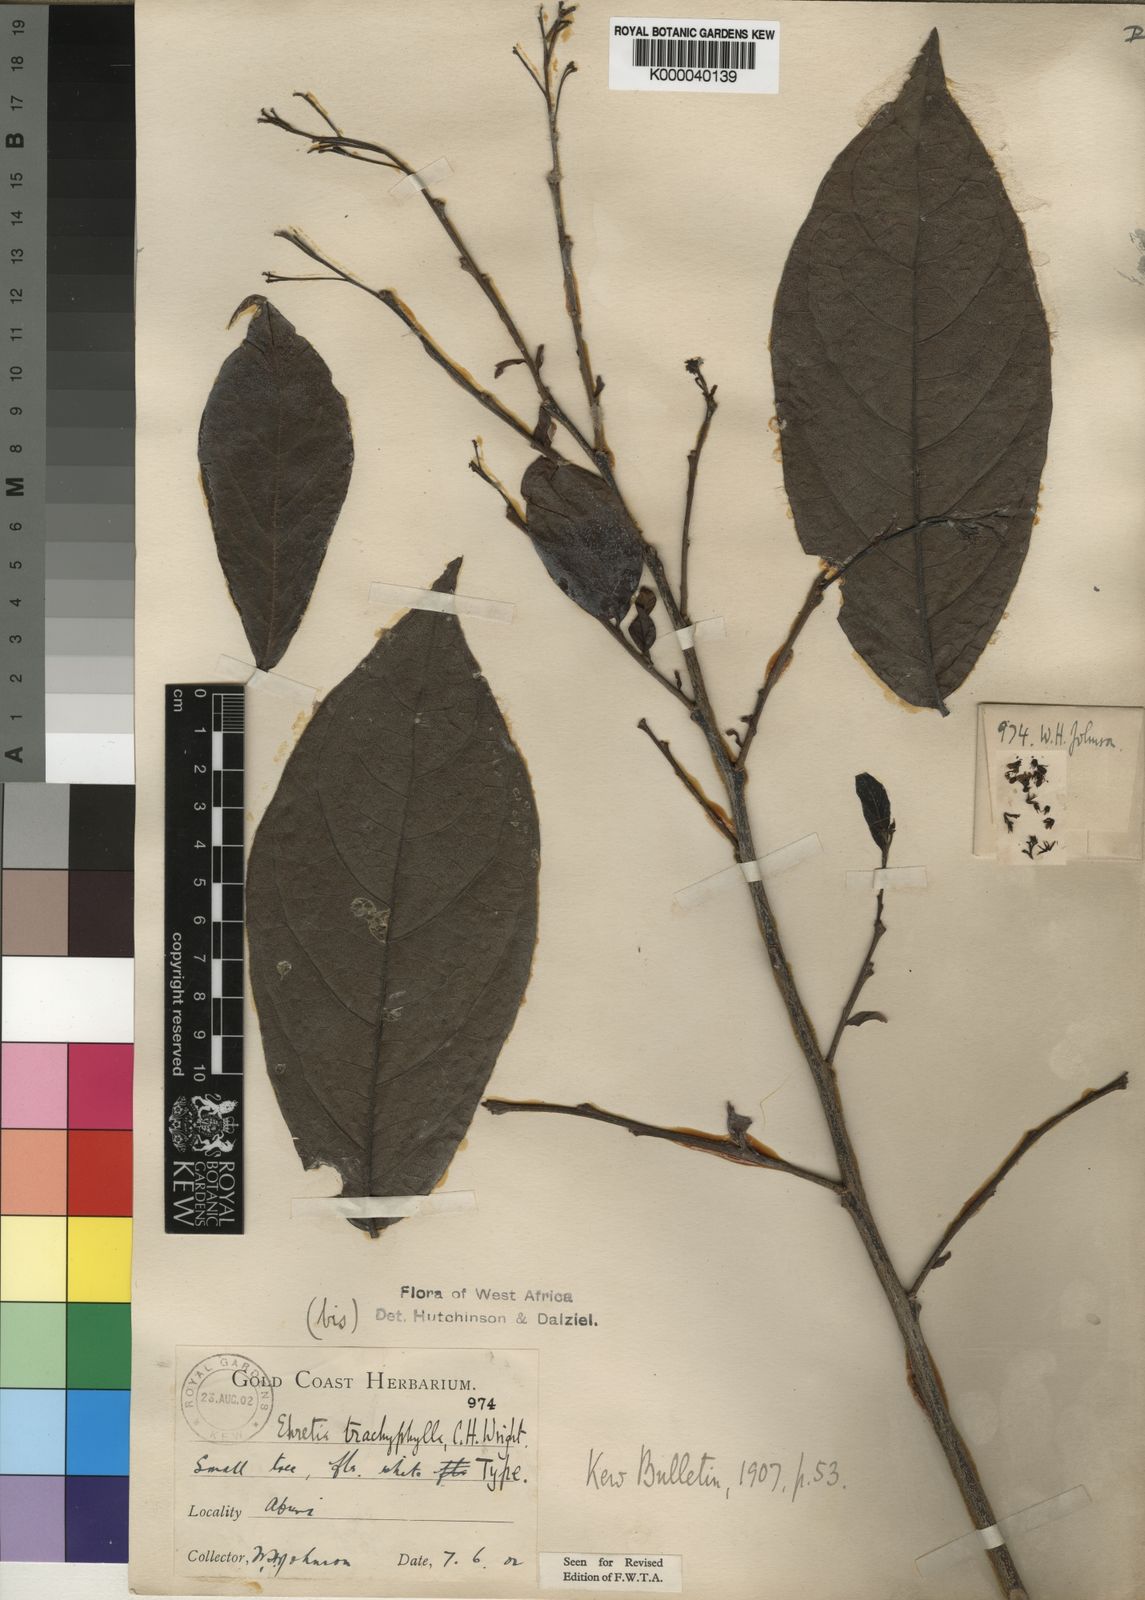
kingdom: Plantae
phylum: Tracheophyta
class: Magnoliopsida
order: Boraginales
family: Ehretiaceae
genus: Ehretia
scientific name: Ehretia trachyphylla
